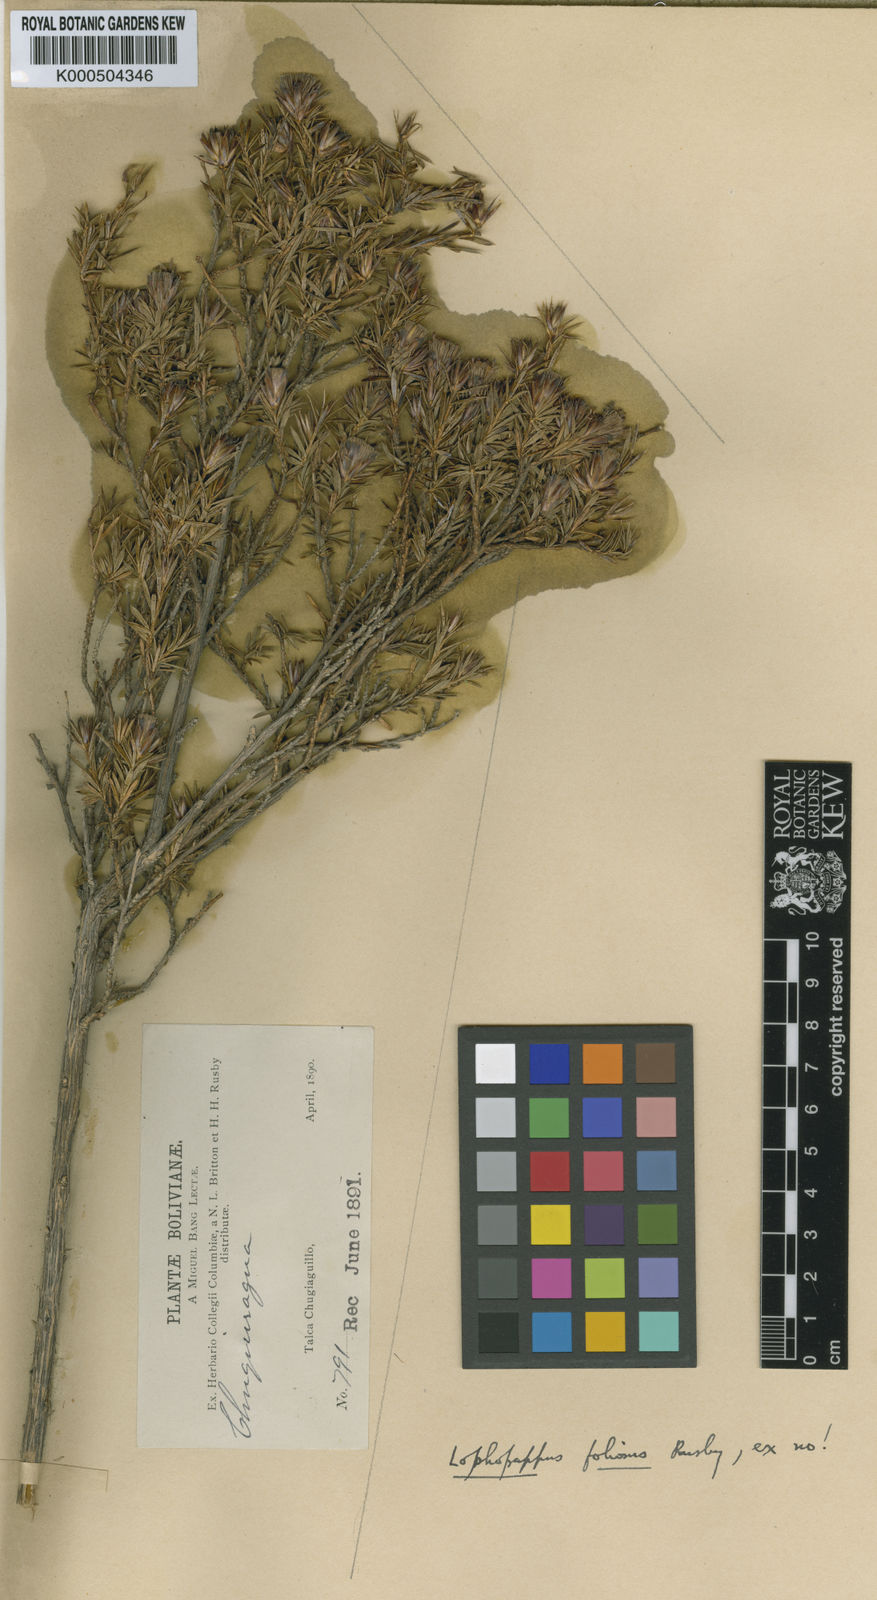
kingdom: Plantae
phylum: Tracheophyta
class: Magnoliopsida
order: Asterales
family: Asteraceae
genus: Lophopappus
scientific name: Lophopappus foliosus
